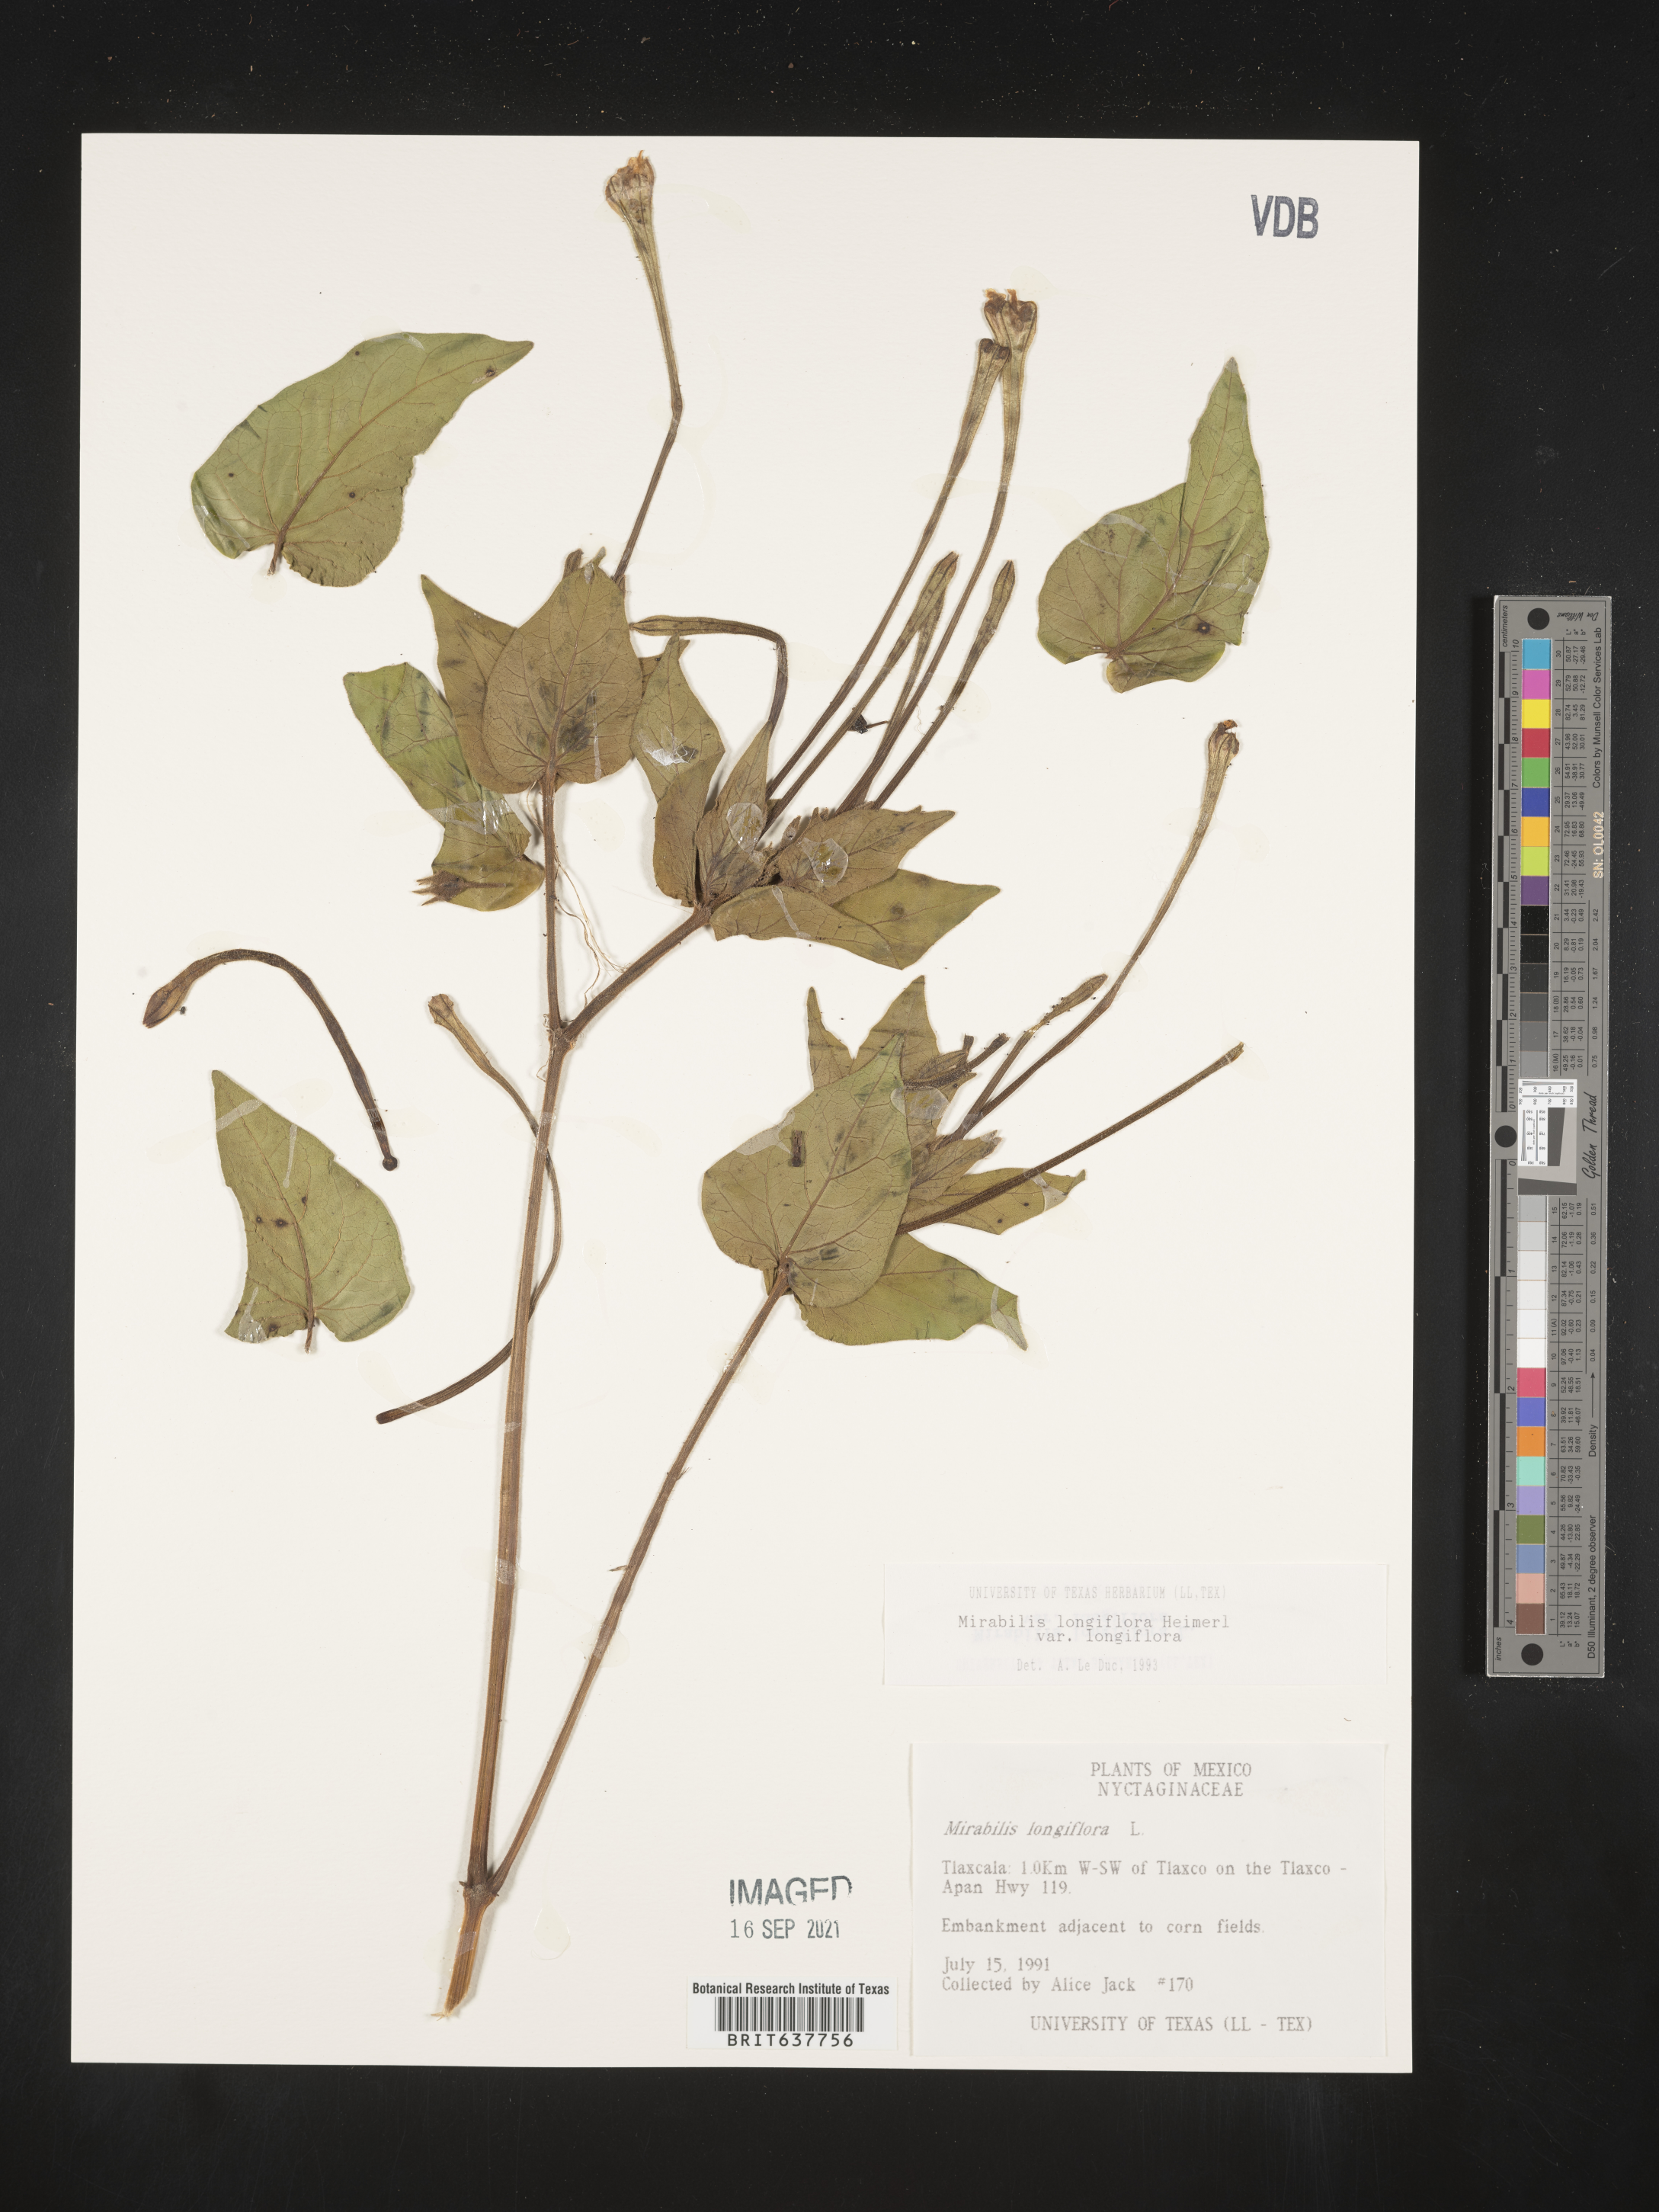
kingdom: Plantae
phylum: Tracheophyta
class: Magnoliopsida
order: Caryophyllales
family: Nyctaginaceae
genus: Mirabilis
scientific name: Mirabilis
